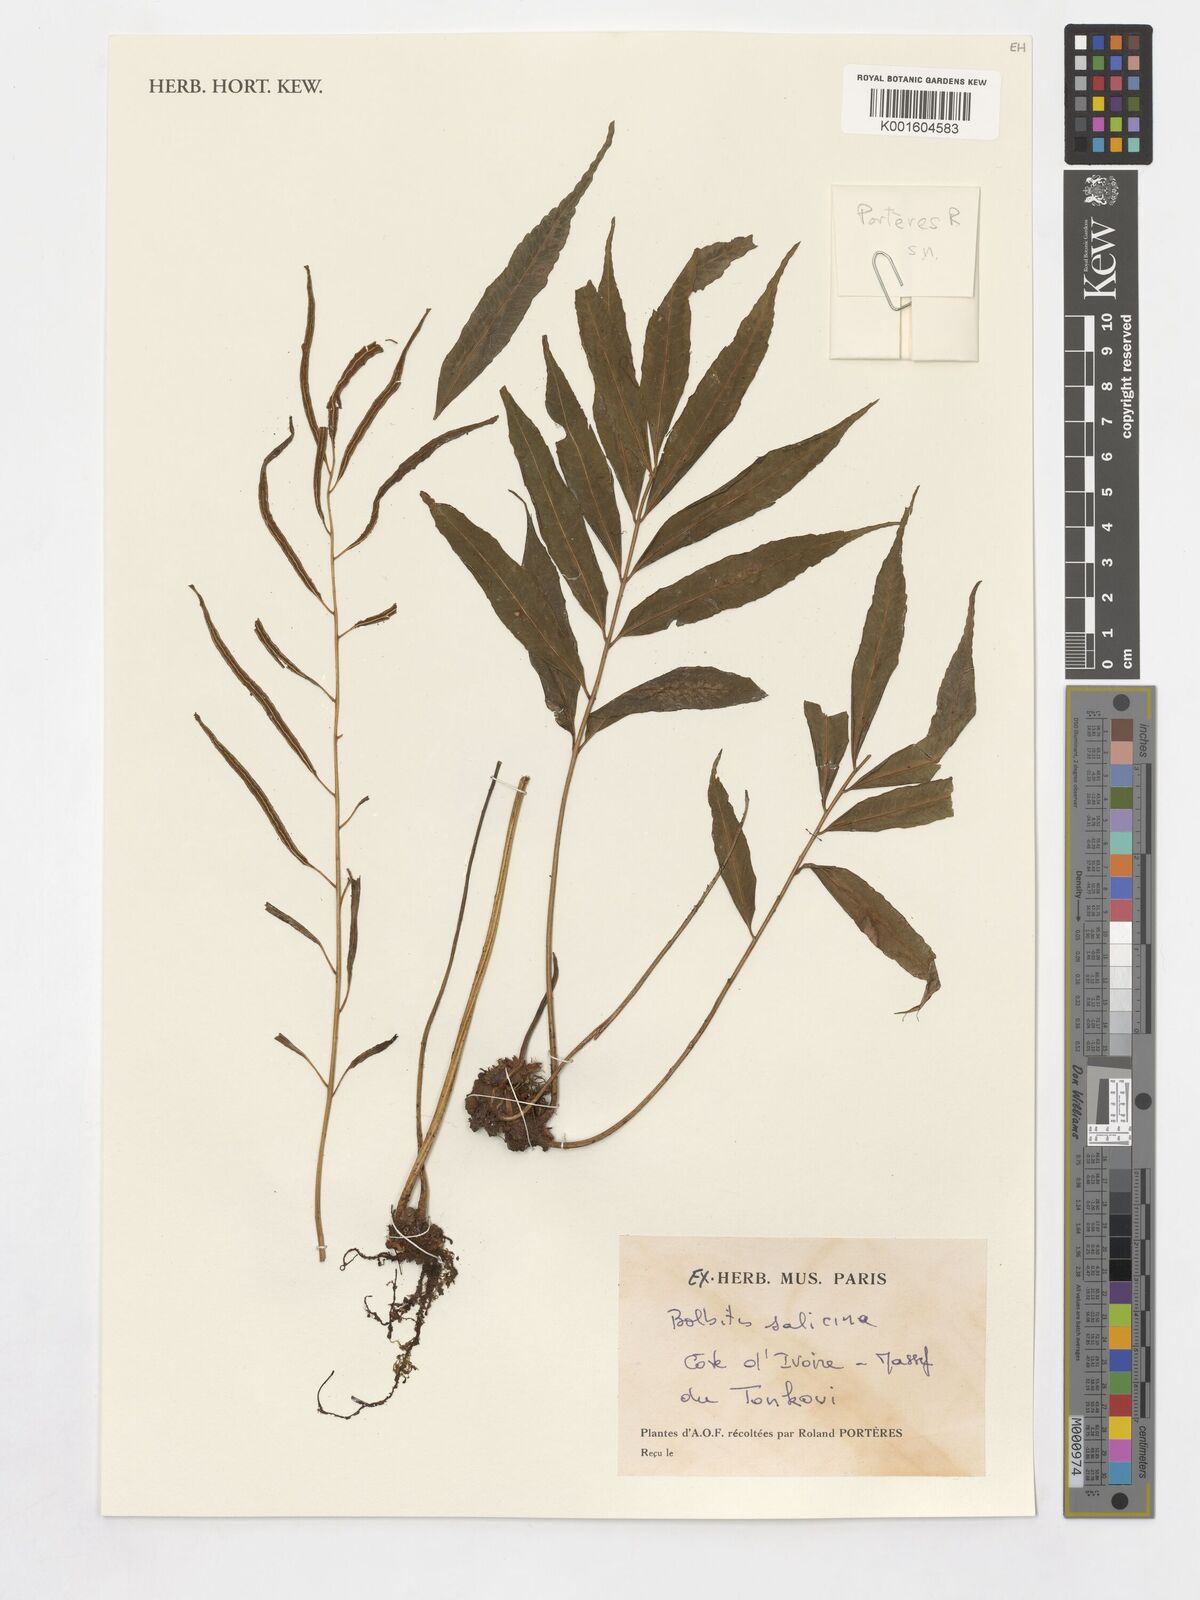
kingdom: Plantae
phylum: Tracheophyta
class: Polypodiopsida
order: Polypodiales
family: Dryopteridaceae
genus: Bolbitis
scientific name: Bolbitis salicina
